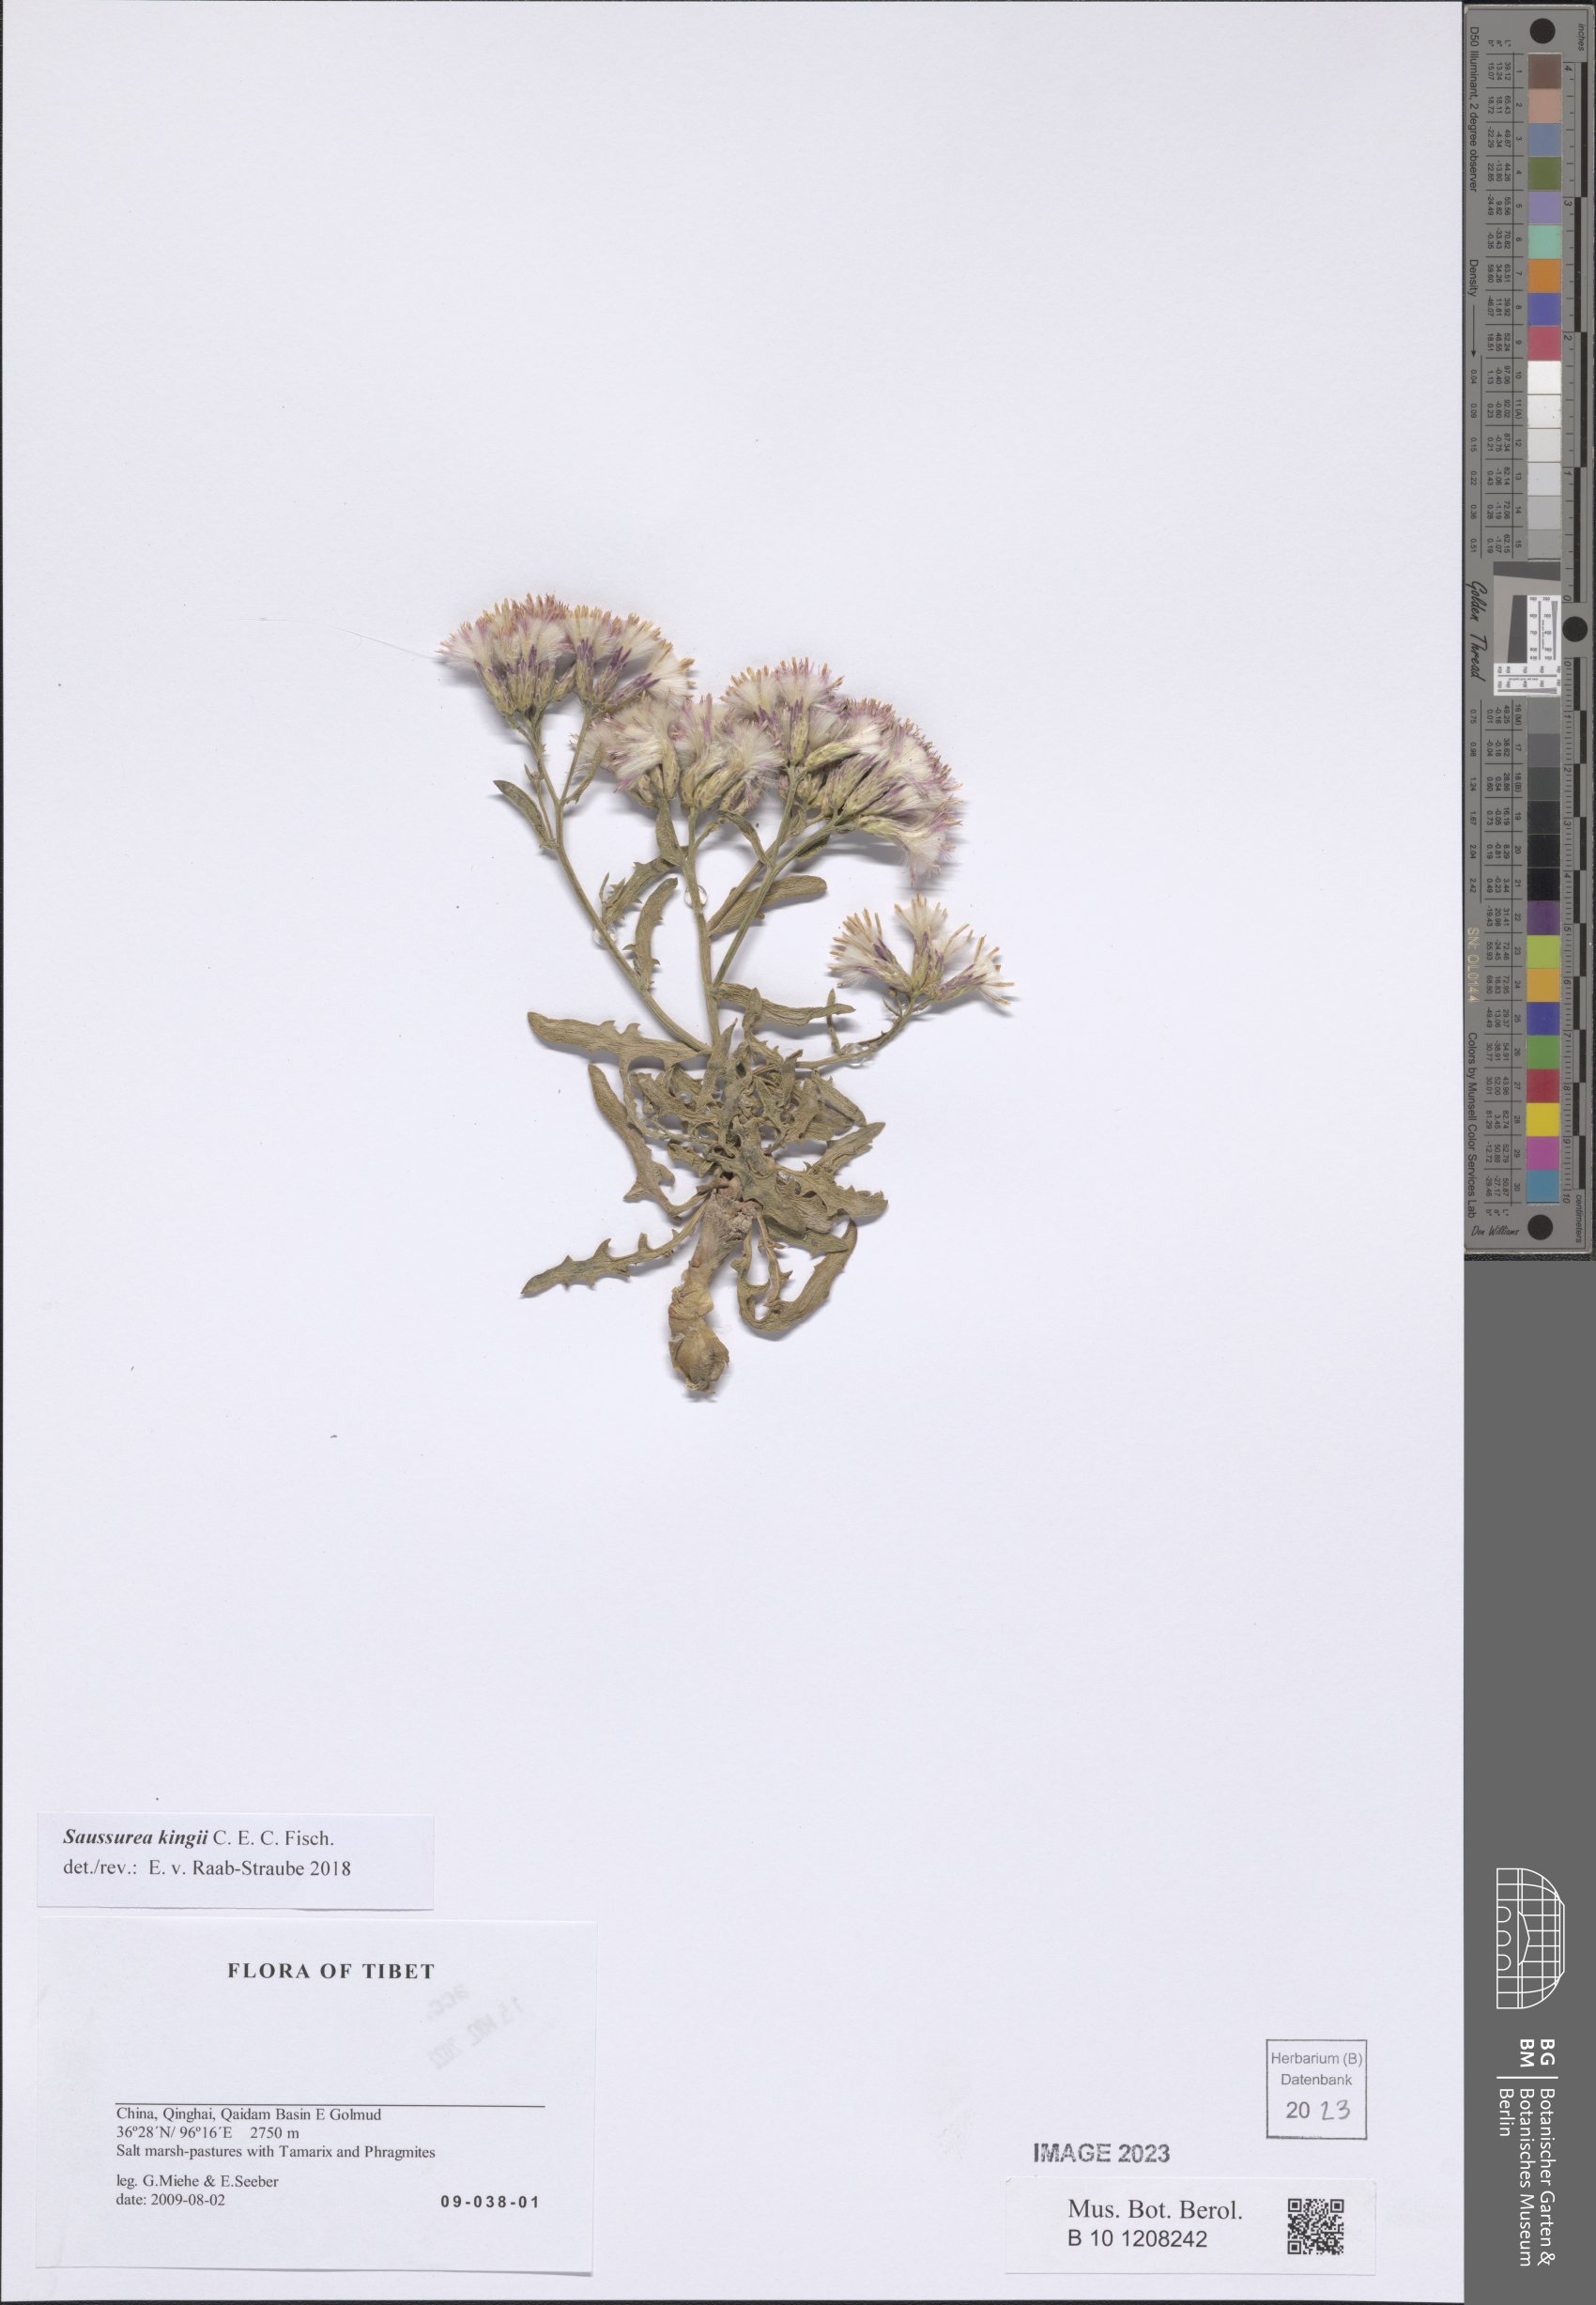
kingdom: Plantae
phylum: Tracheophyta
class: Magnoliopsida
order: Asterales
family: Asteraceae
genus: Saussurea
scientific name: Saussurea kingii
